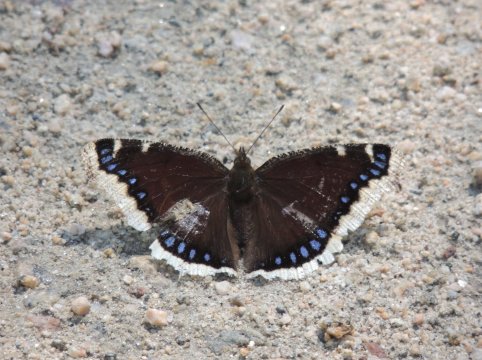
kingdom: Animalia
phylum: Arthropoda
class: Insecta
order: Lepidoptera
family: Nymphalidae
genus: Nymphalis
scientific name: Nymphalis antiopa
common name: Mourning Cloak
